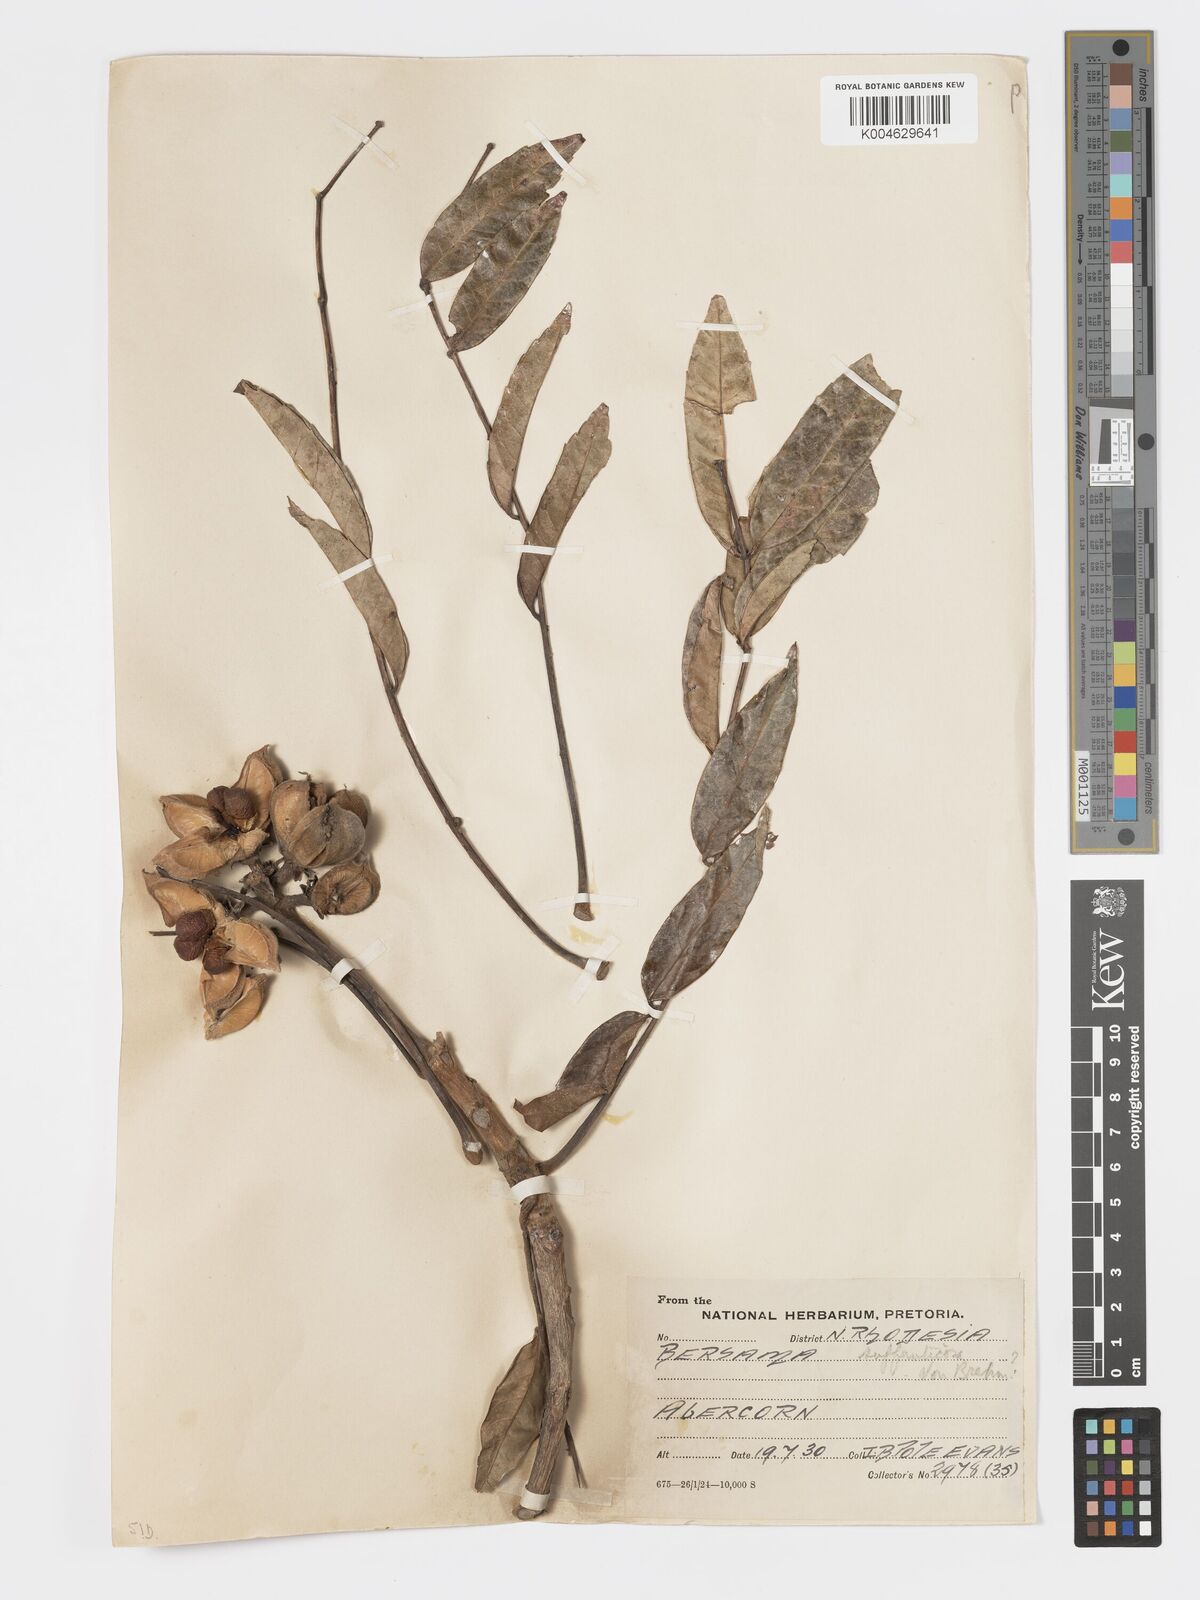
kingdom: Plantae
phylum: Tracheophyta
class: Magnoliopsida
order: Geraniales
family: Melianthaceae
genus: Bersama
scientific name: Bersama
